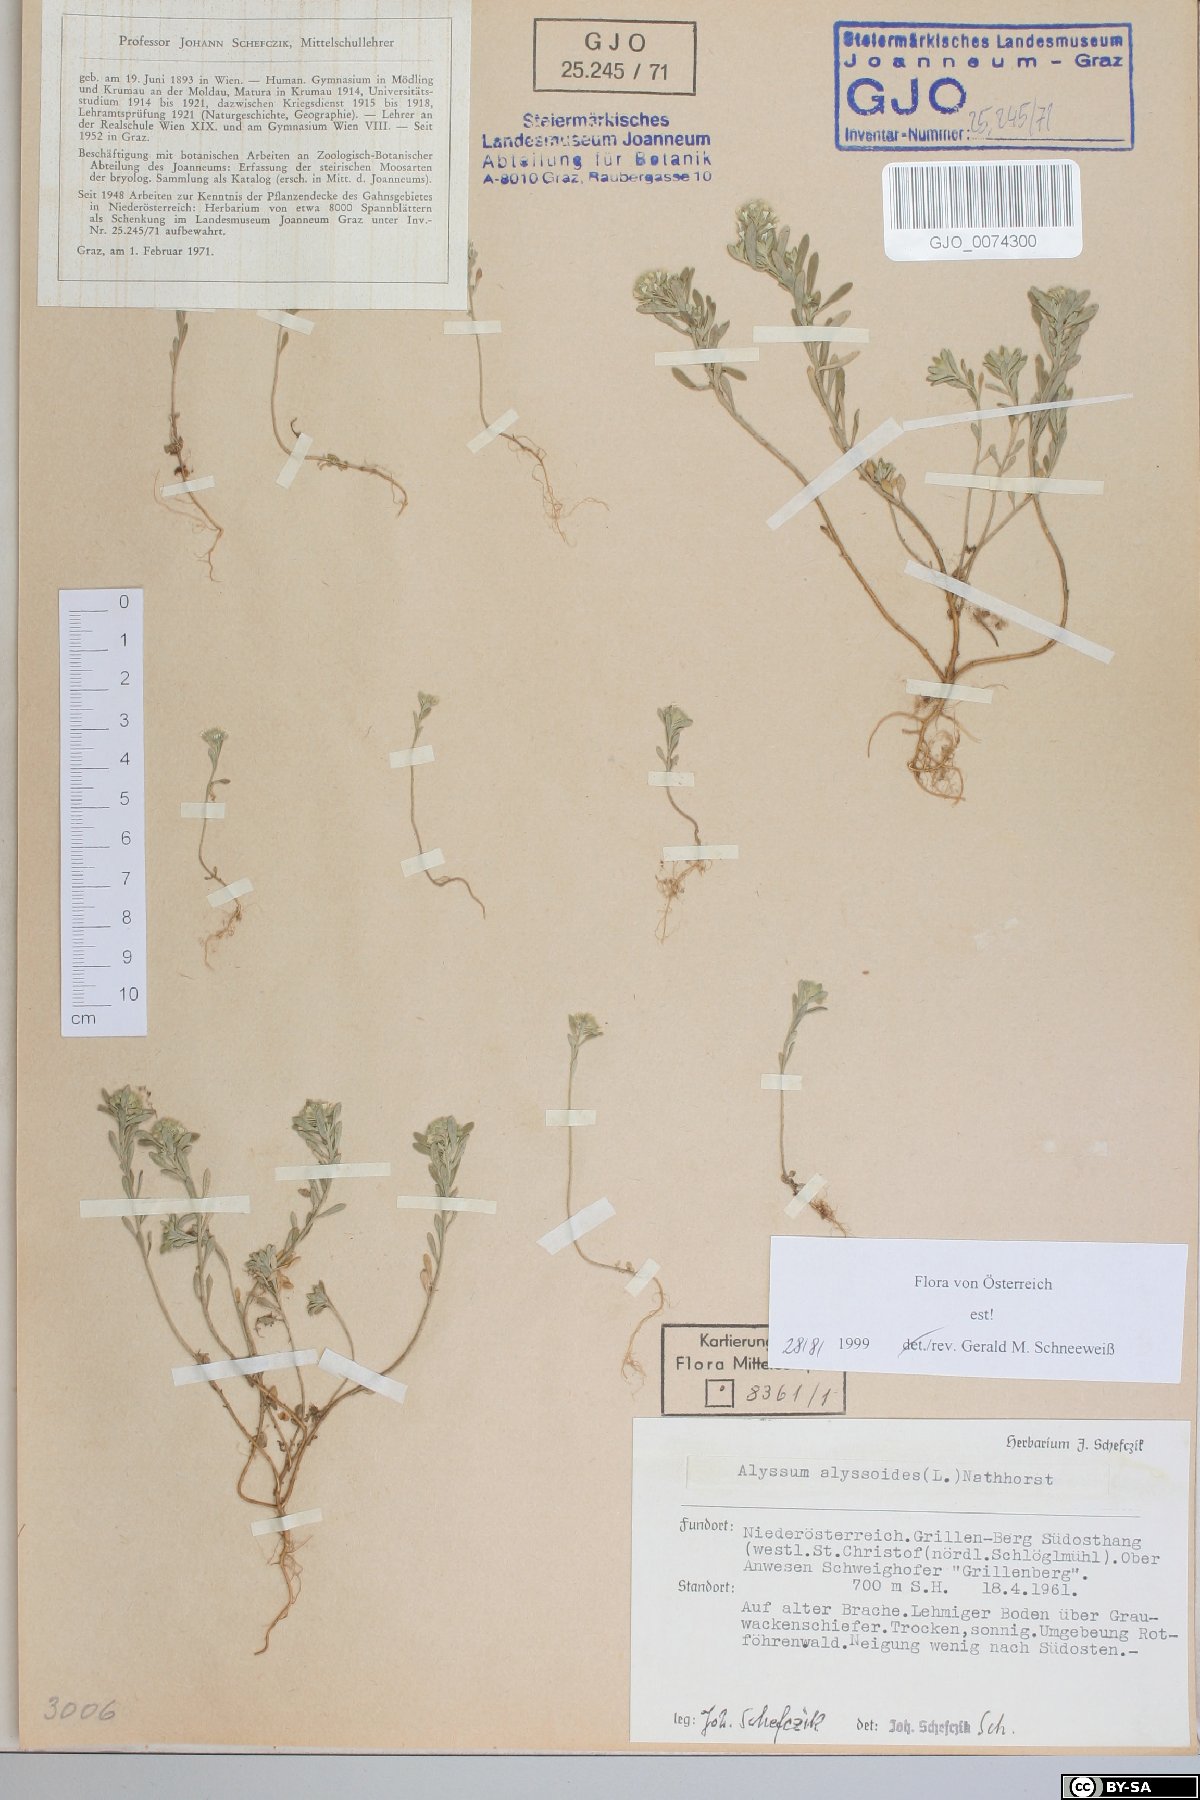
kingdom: Plantae
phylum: Tracheophyta
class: Magnoliopsida
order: Brassicales
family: Brassicaceae
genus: Alyssum
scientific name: Alyssum alyssoides
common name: Small alison
